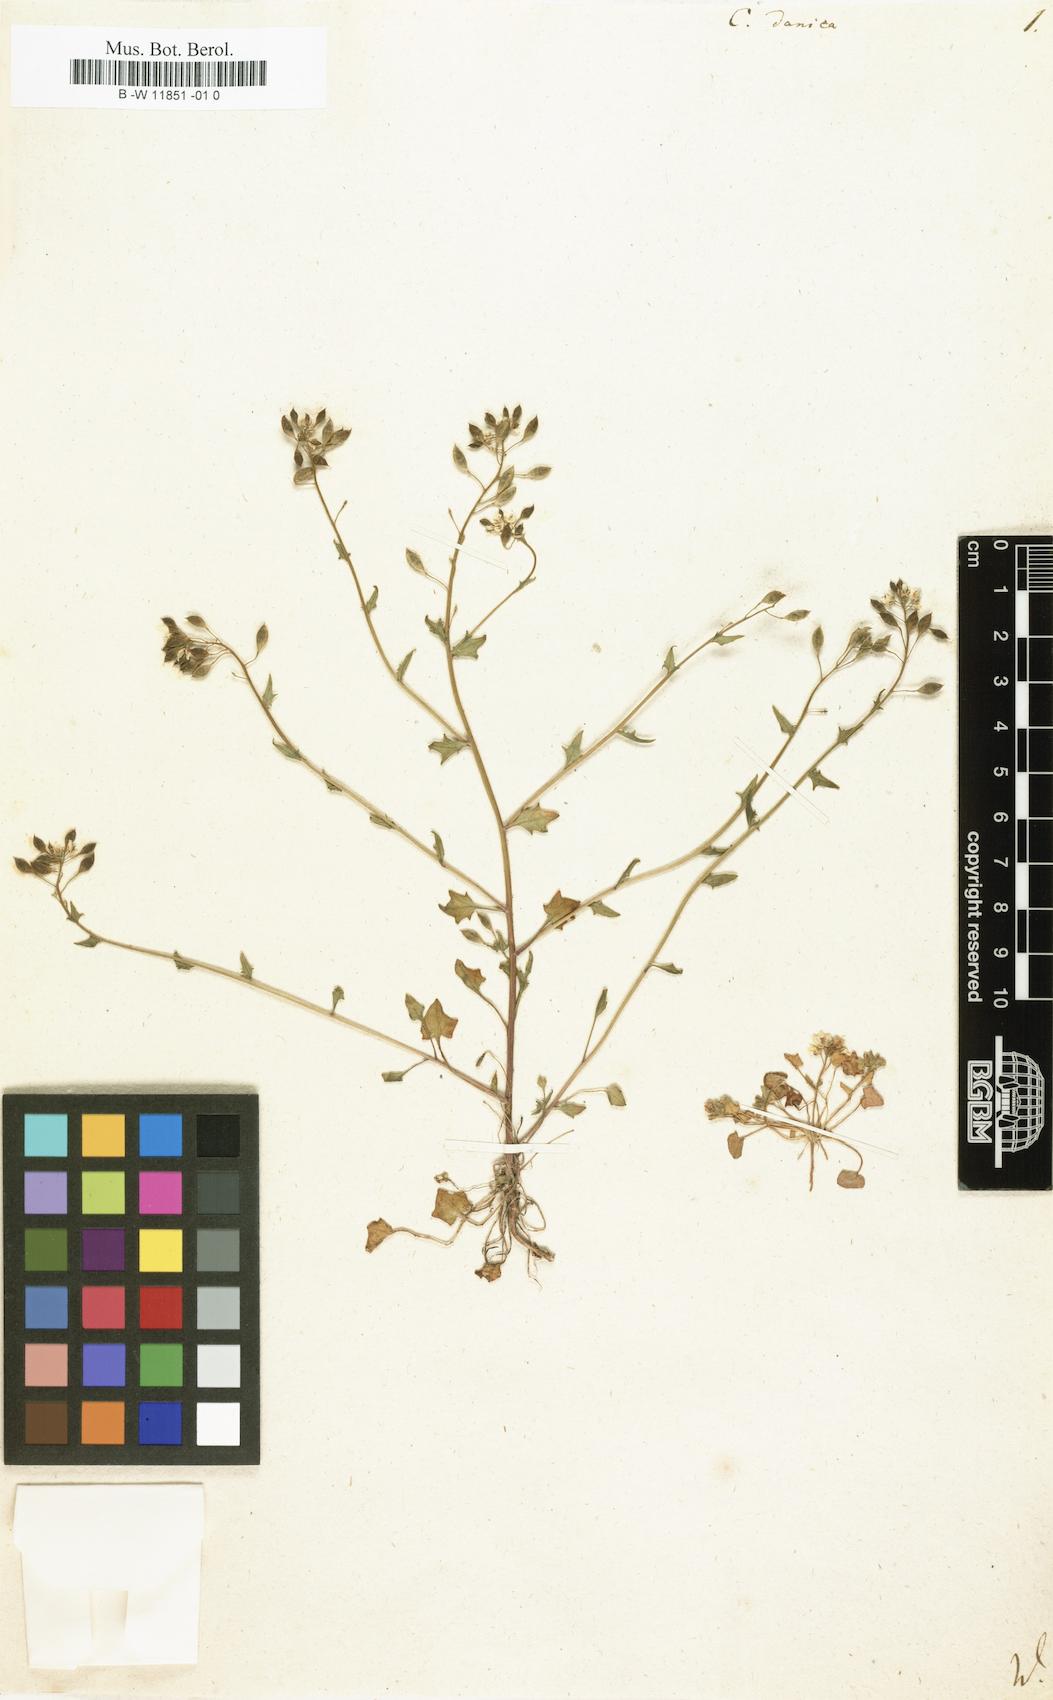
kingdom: Plantae
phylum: Tracheophyta
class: Magnoliopsida
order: Brassicales
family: Brassicaceae
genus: Cochlearia
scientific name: Cochlearia danica
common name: Early scurvygrass
